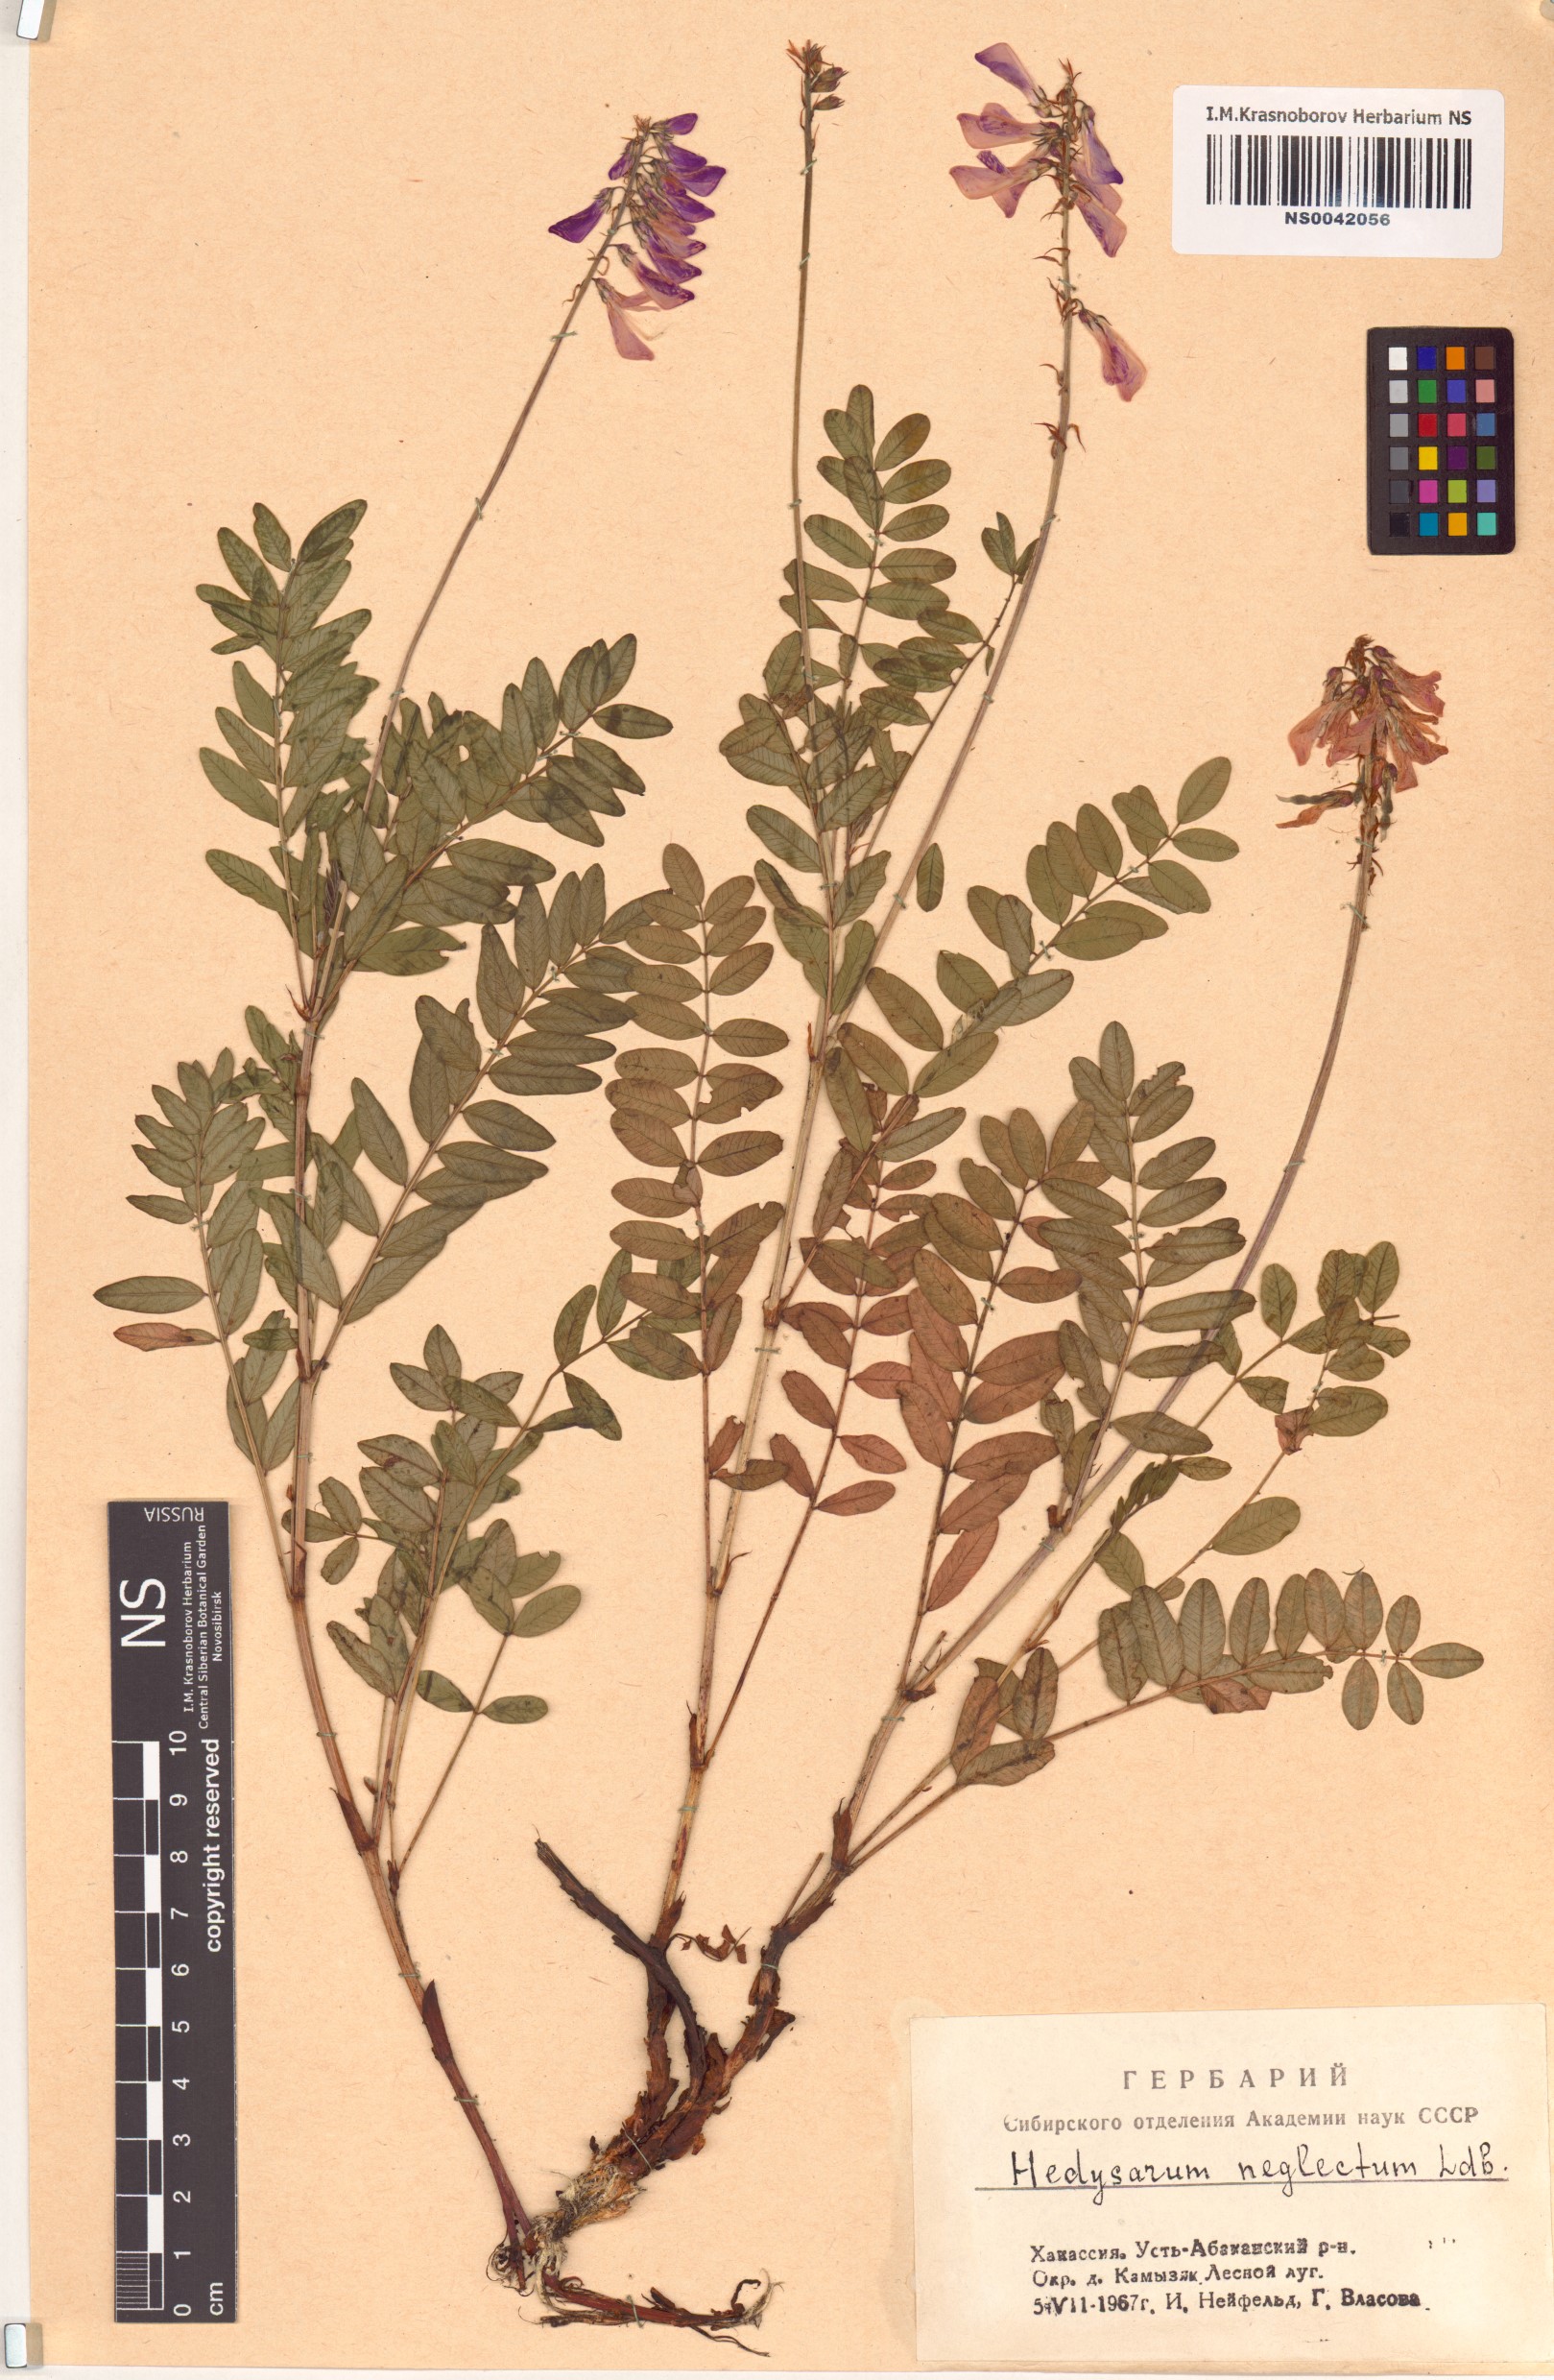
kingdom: Plantae
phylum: Tracheophyta
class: Magnoliopsida
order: Fabales
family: Fabaceae
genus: Hedysarum
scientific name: Hedysarum neglectum
